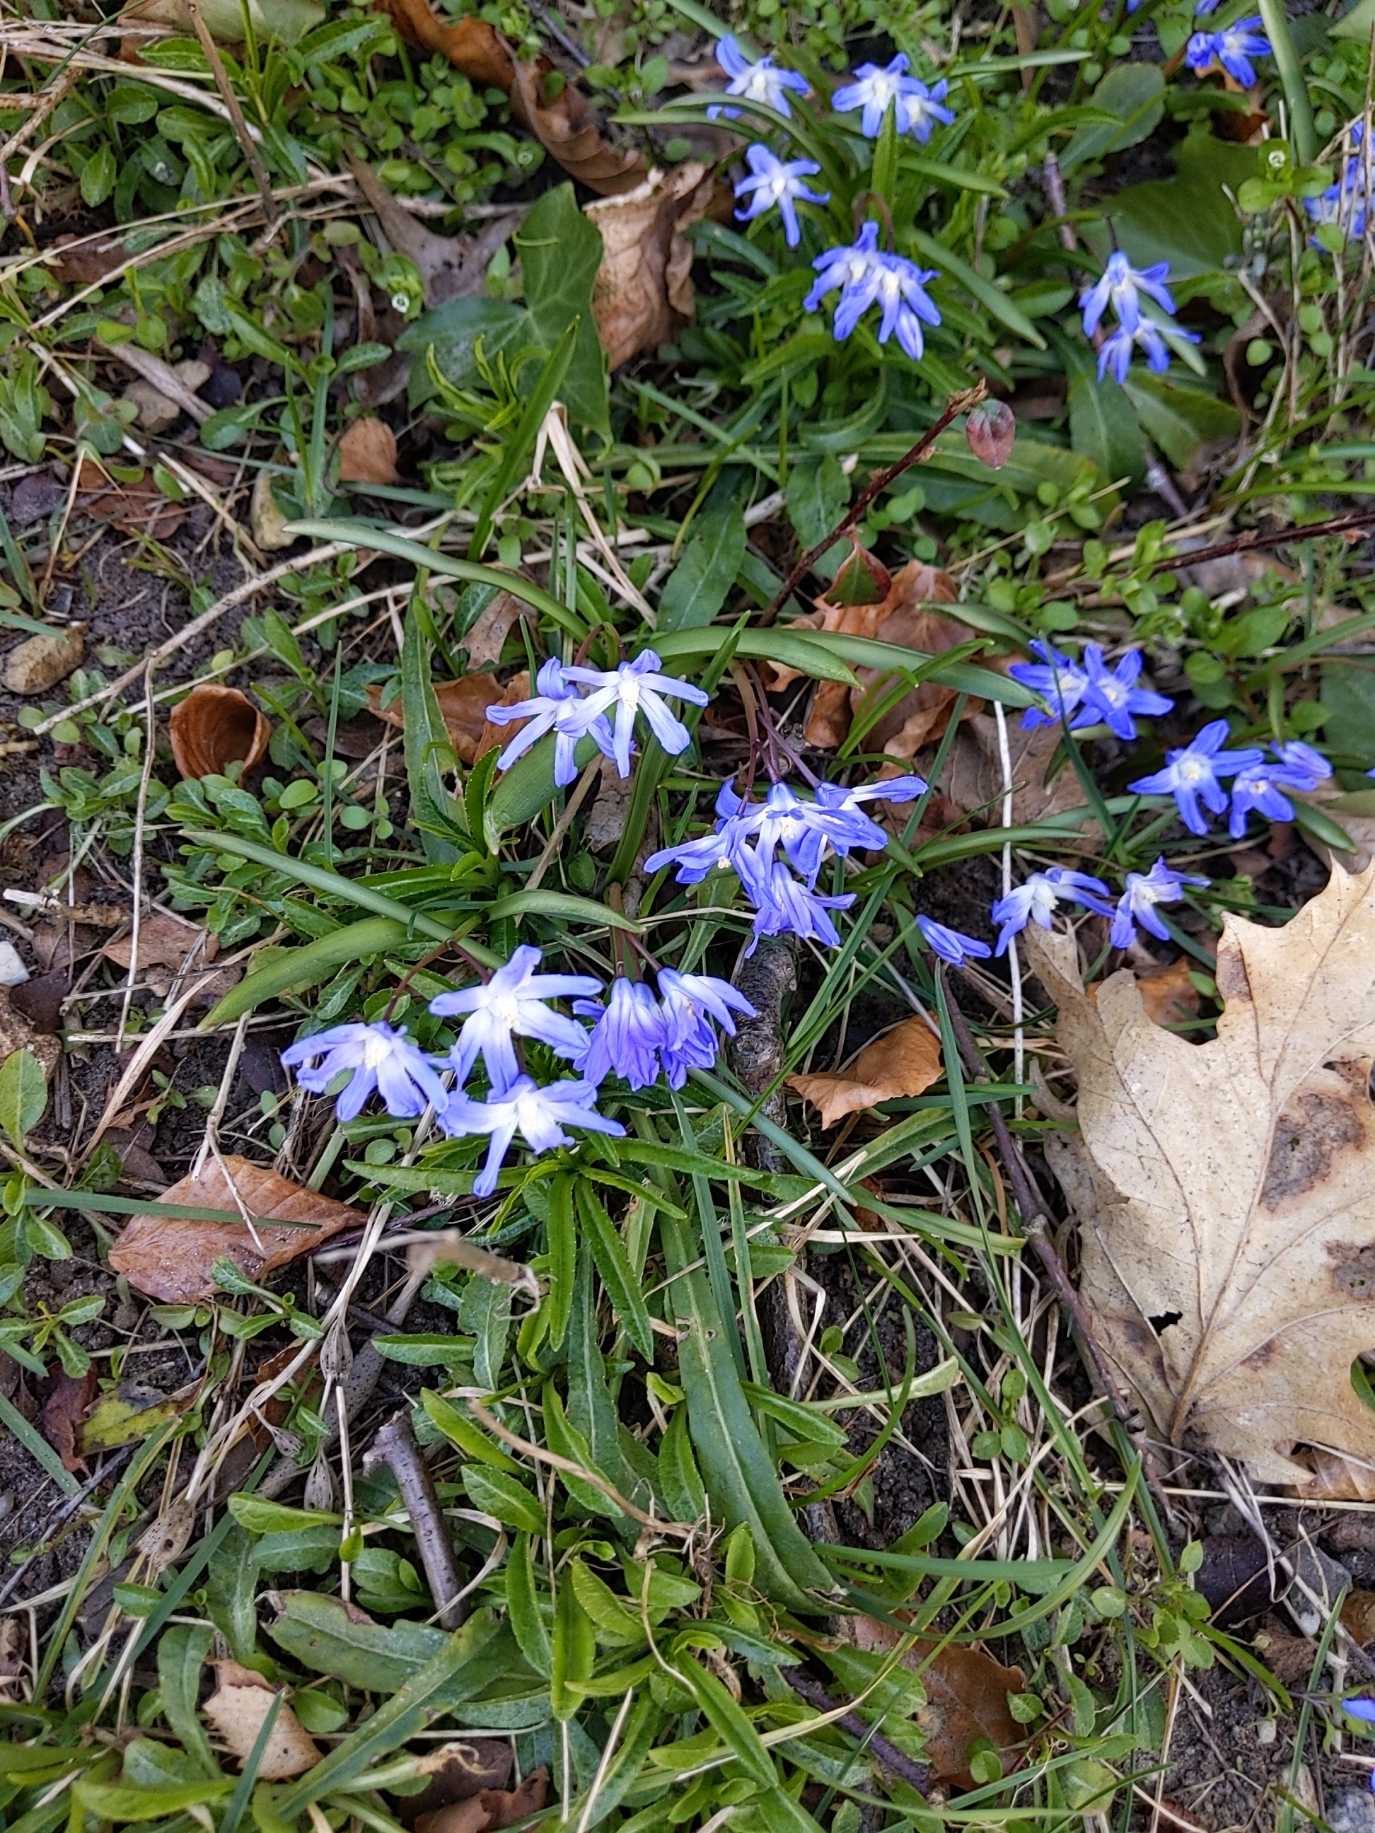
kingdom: Plantae
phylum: Tracheophyta
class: Liliopsida
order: Asparagales
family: Asparagaceae
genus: Scilla
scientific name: Scilla forbesii
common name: Almindelig snepryd
